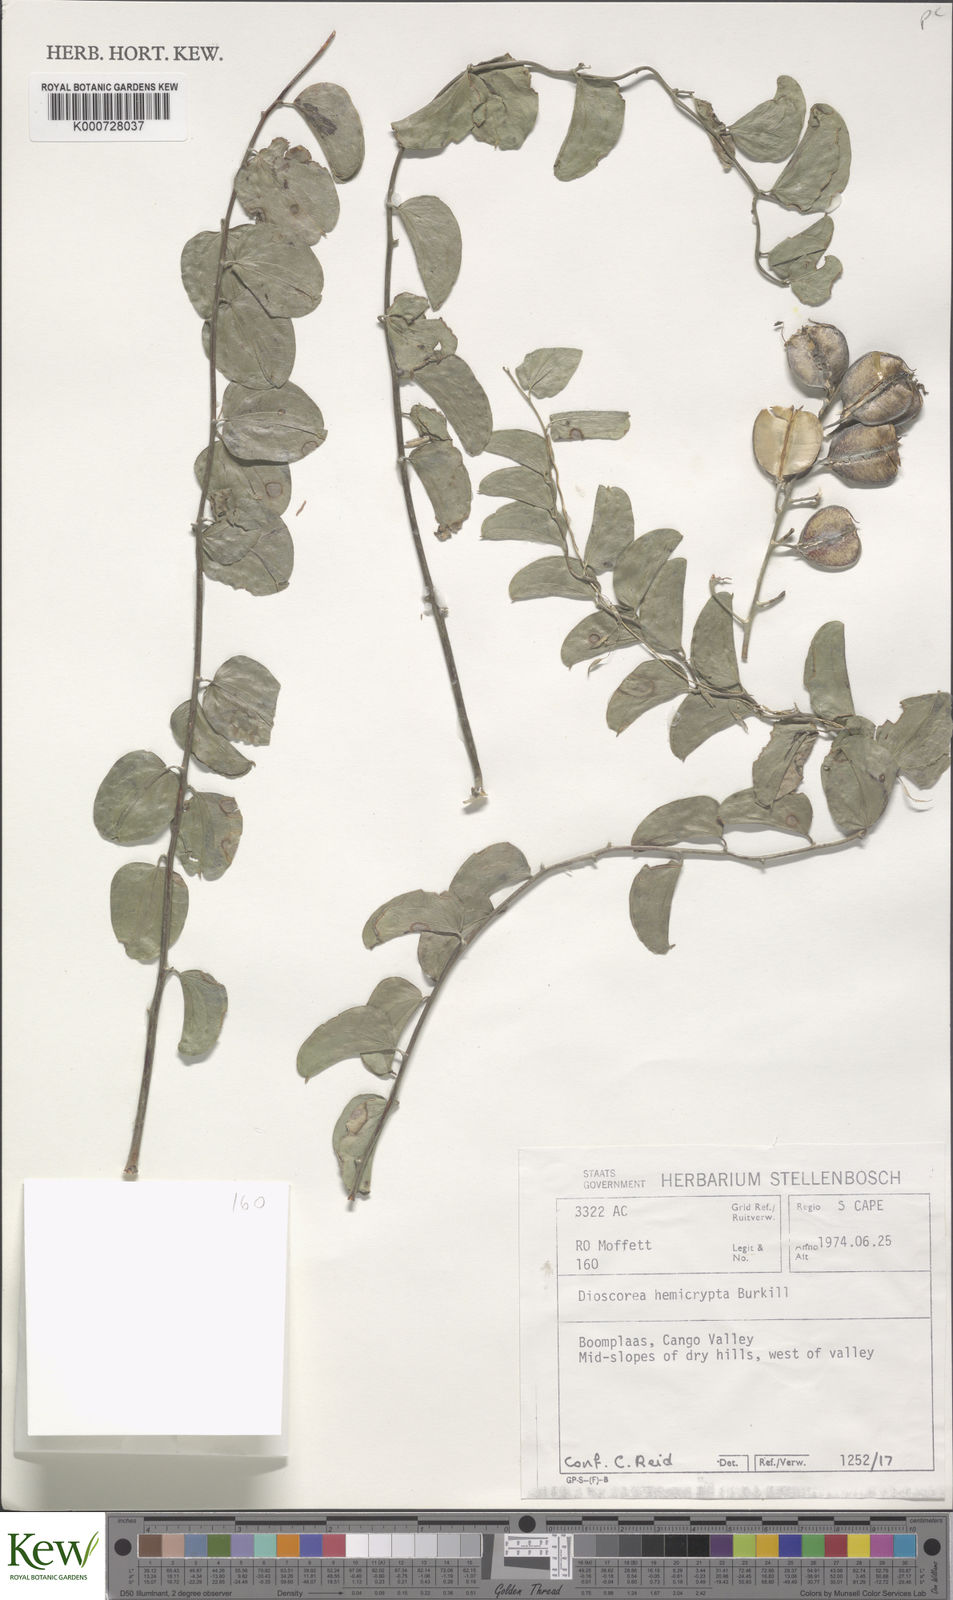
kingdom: Plantae
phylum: Tracheophyta
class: Liliopsida
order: Dioscoreales
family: Dioscoreaceae
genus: Dioscorea
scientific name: Dioscorea hemicrypta
